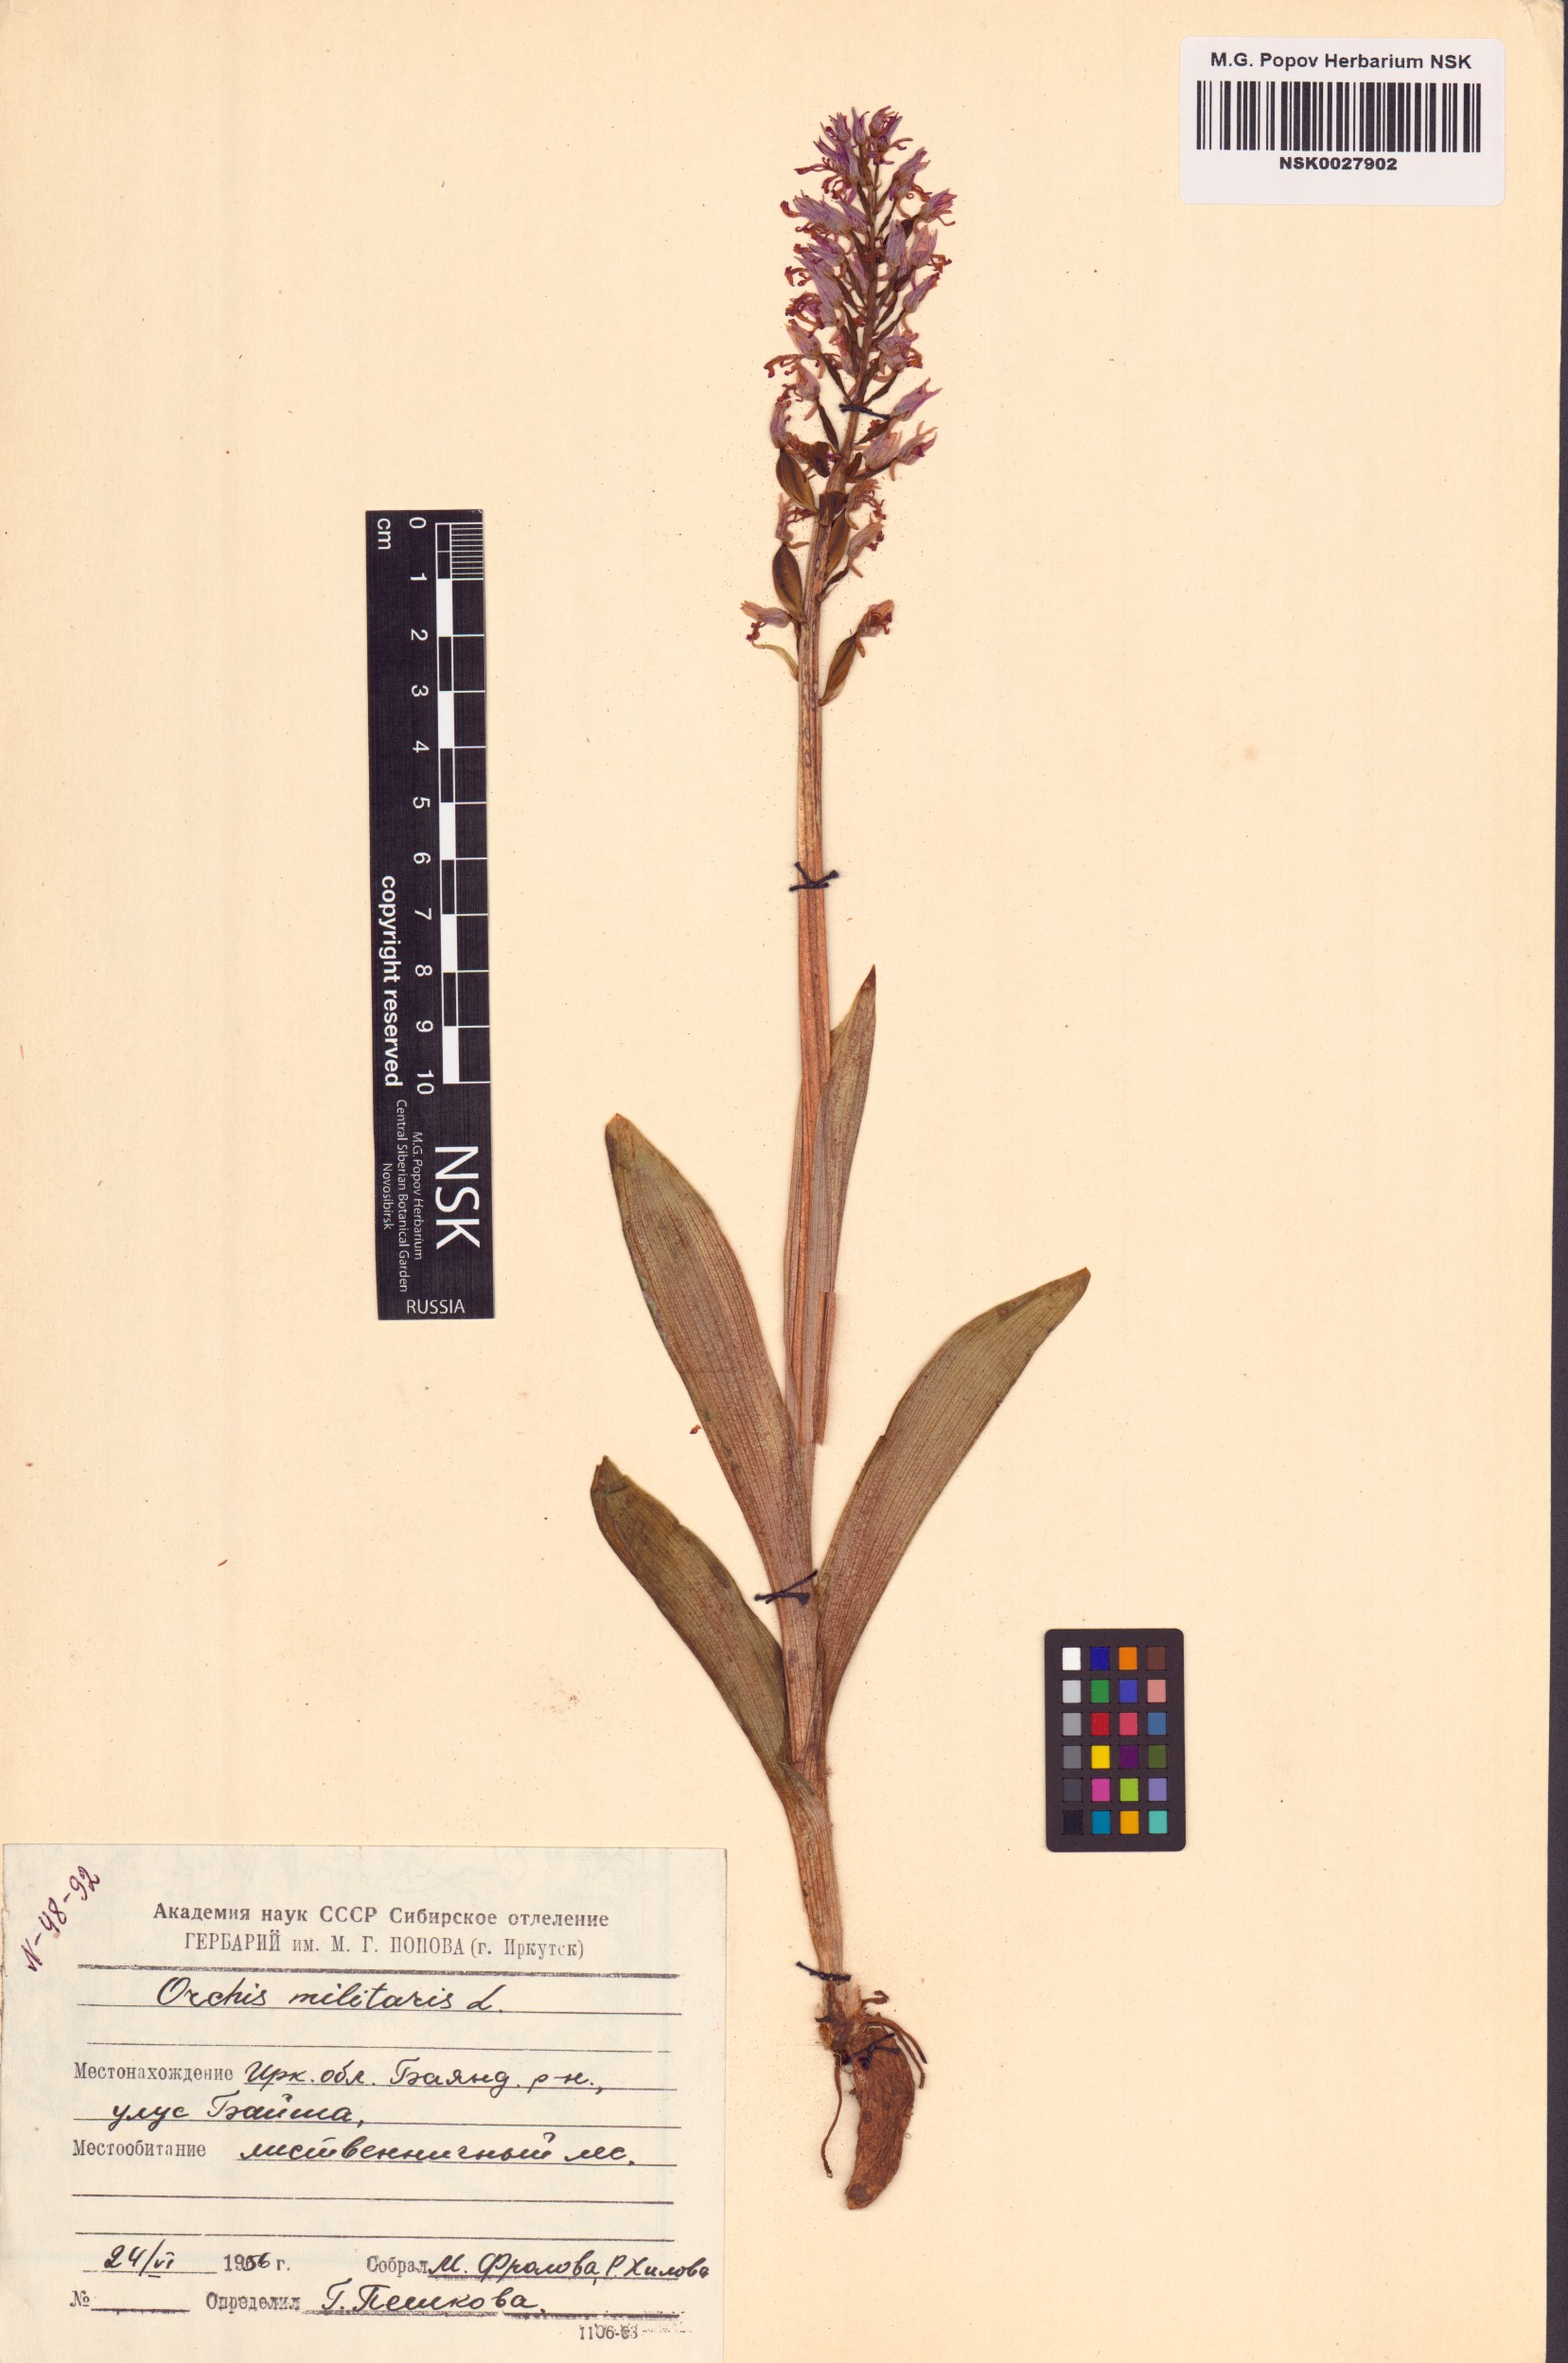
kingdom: Plantae
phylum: Tracheophyta
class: Liliopsida
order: Asparagales
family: Orchidaceae
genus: Orchis
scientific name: Orchis militaris
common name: Military orchid
